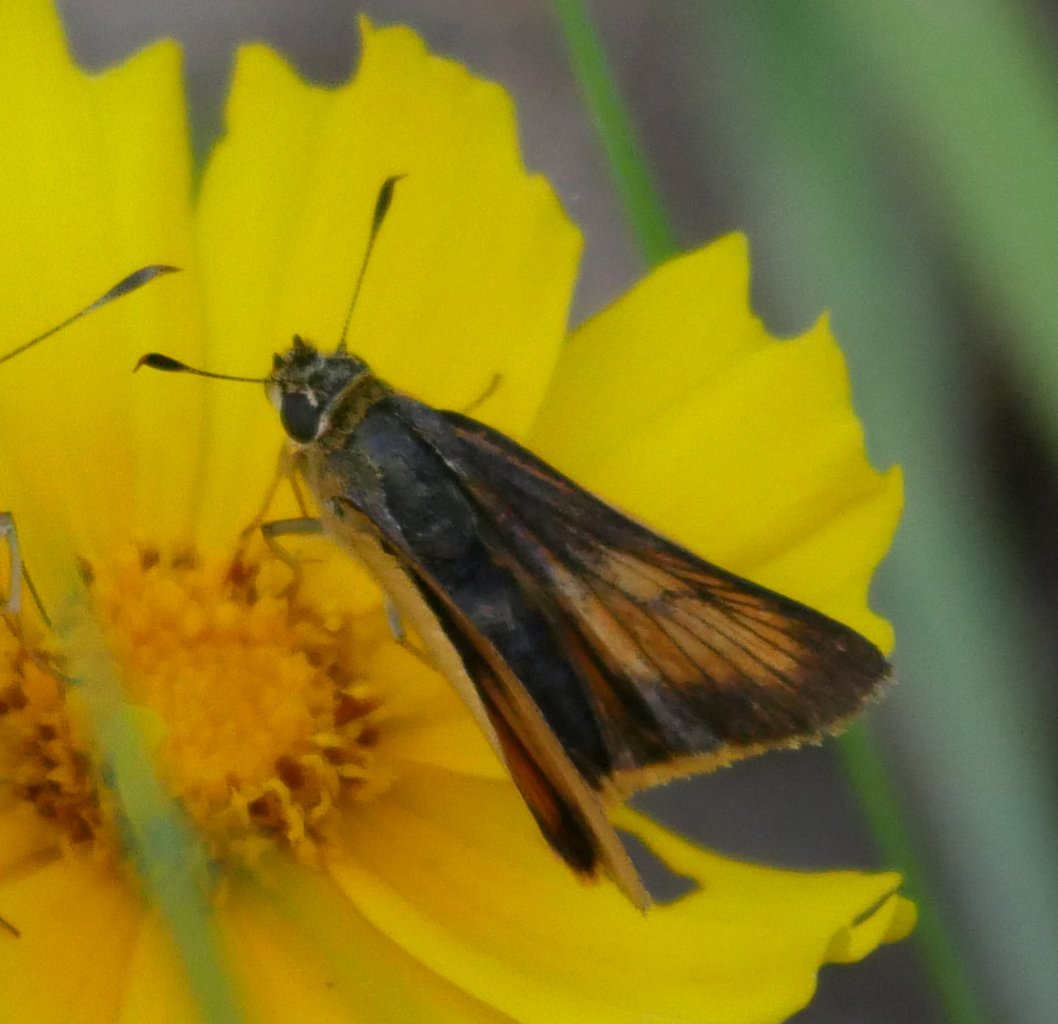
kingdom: Animalia
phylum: Arthropoda
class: Insecta
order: Lepidoptera
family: Hesperiidae
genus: Atrytone
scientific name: Atrytone delaware
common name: Delaware Skipper
